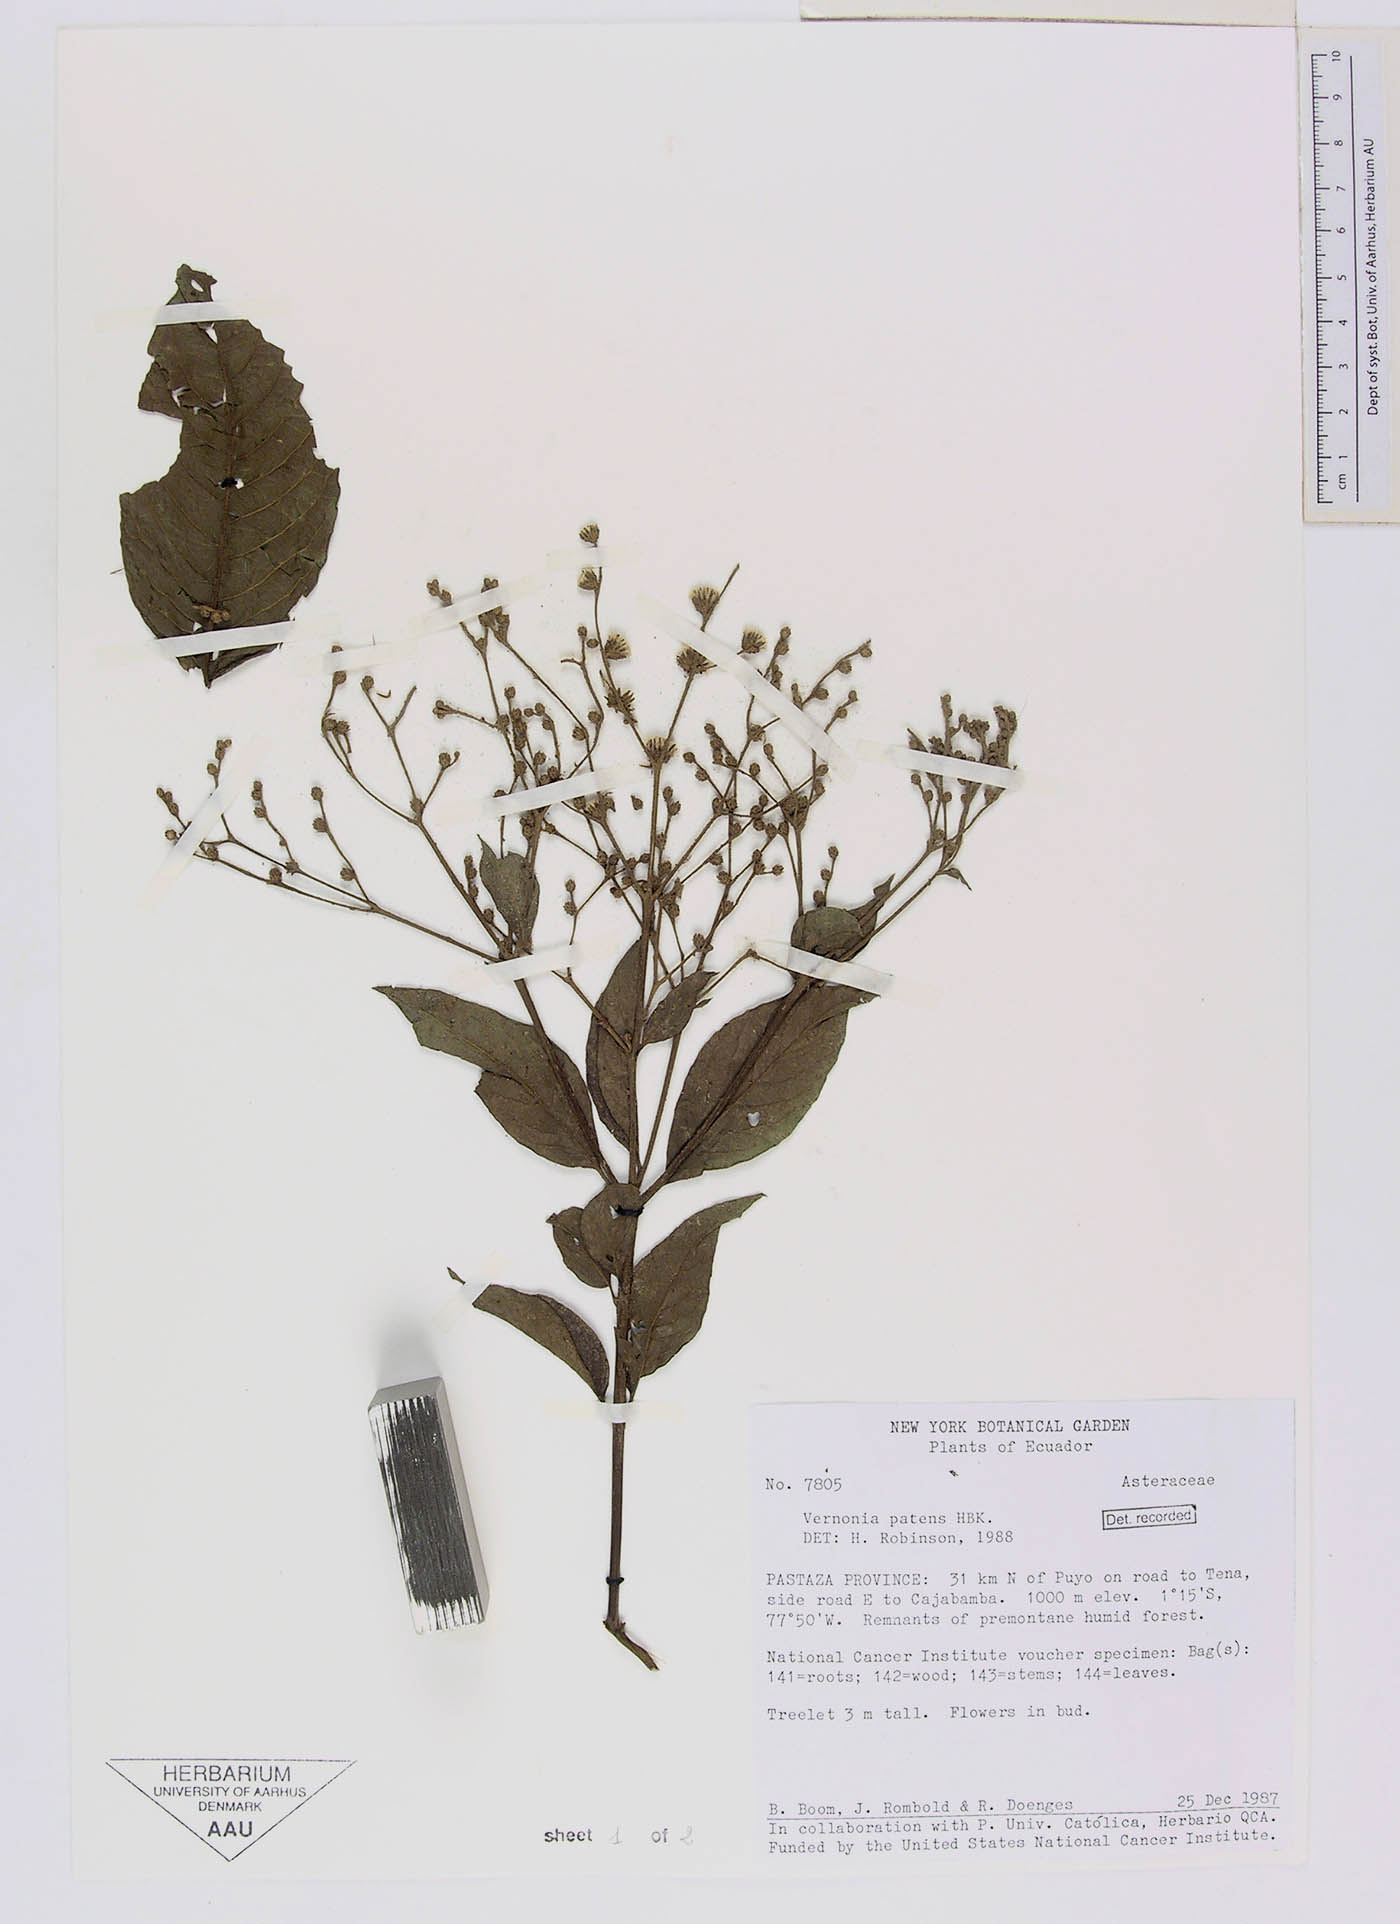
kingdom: Plantae
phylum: Tracheophyta
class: Magnoliopsida
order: Asterales
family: Asteraceae
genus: Vernonanthura
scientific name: Vernonanthura patens
